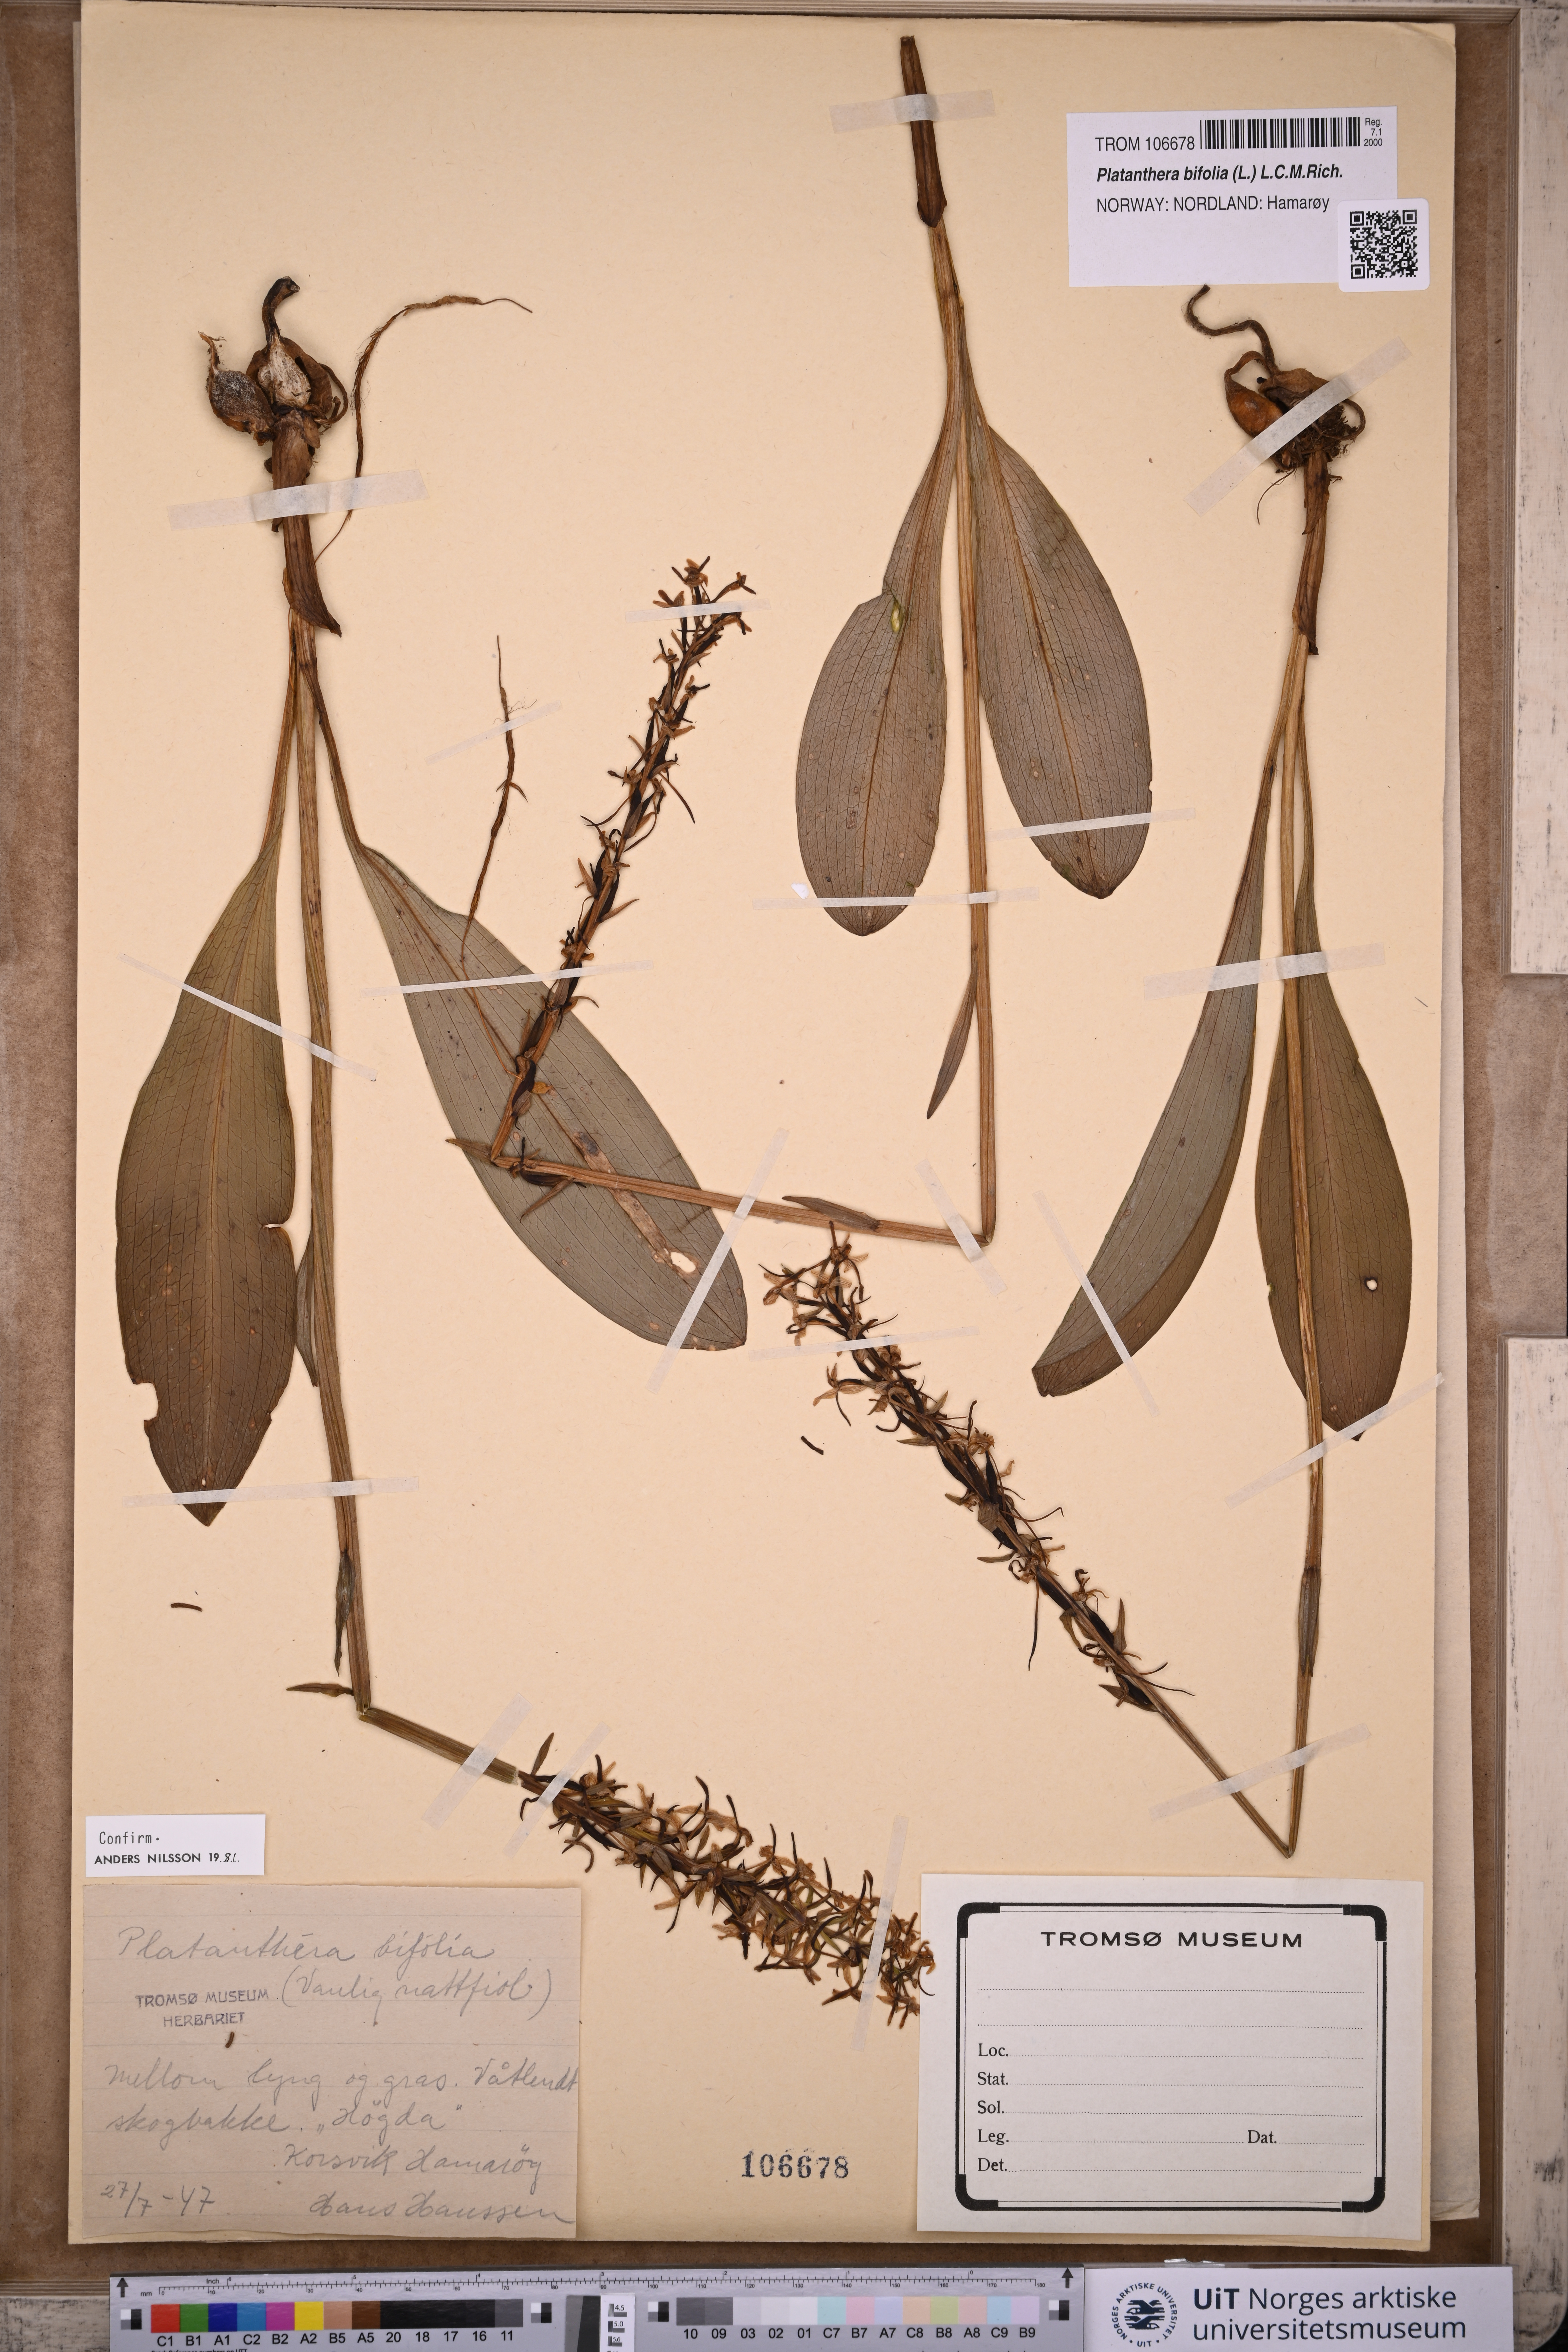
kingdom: Plantae
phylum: Tracheophyta
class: Liliopsida
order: Asparagales
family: Orchidaceae
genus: Platanthera
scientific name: Platanthera bifolia
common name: Lesser butterfly-orchid
